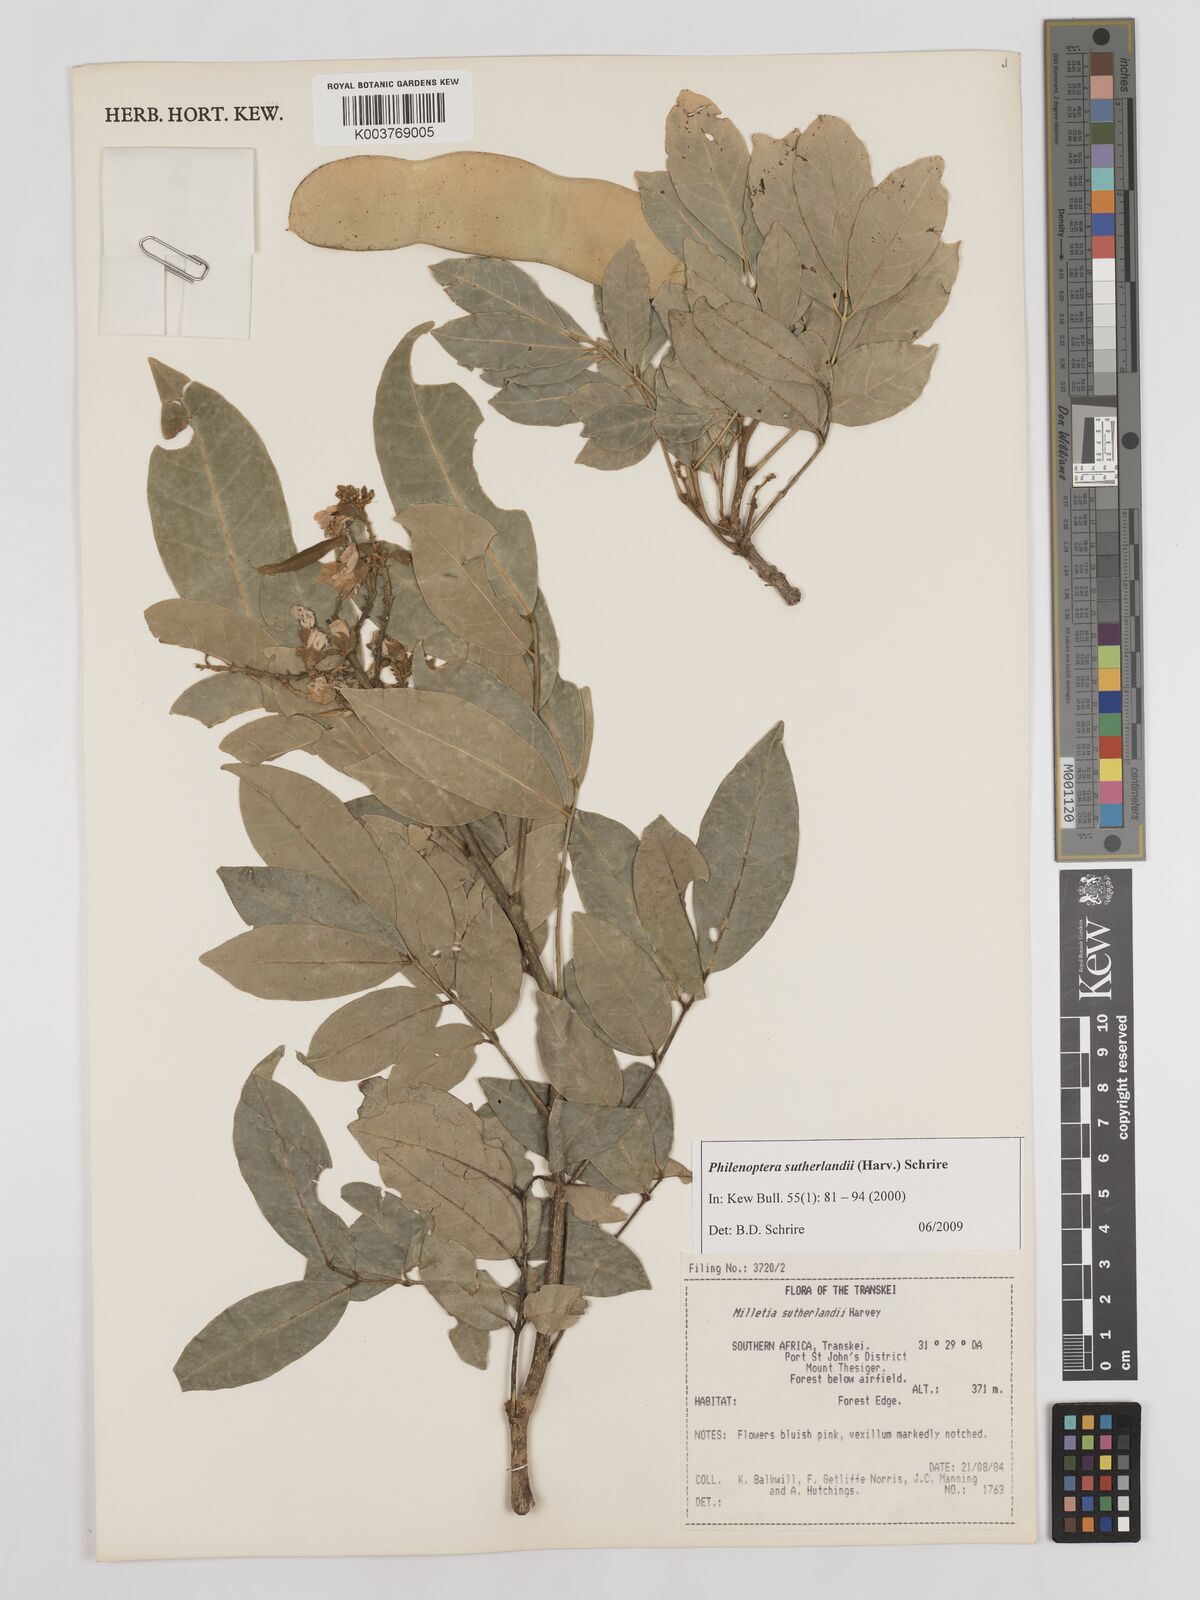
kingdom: Plantae
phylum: Tracheophyta
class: Magnoliopsida
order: Fabales
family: Fabaceae
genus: Philenoptera
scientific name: Philenoptera sutherlandii
